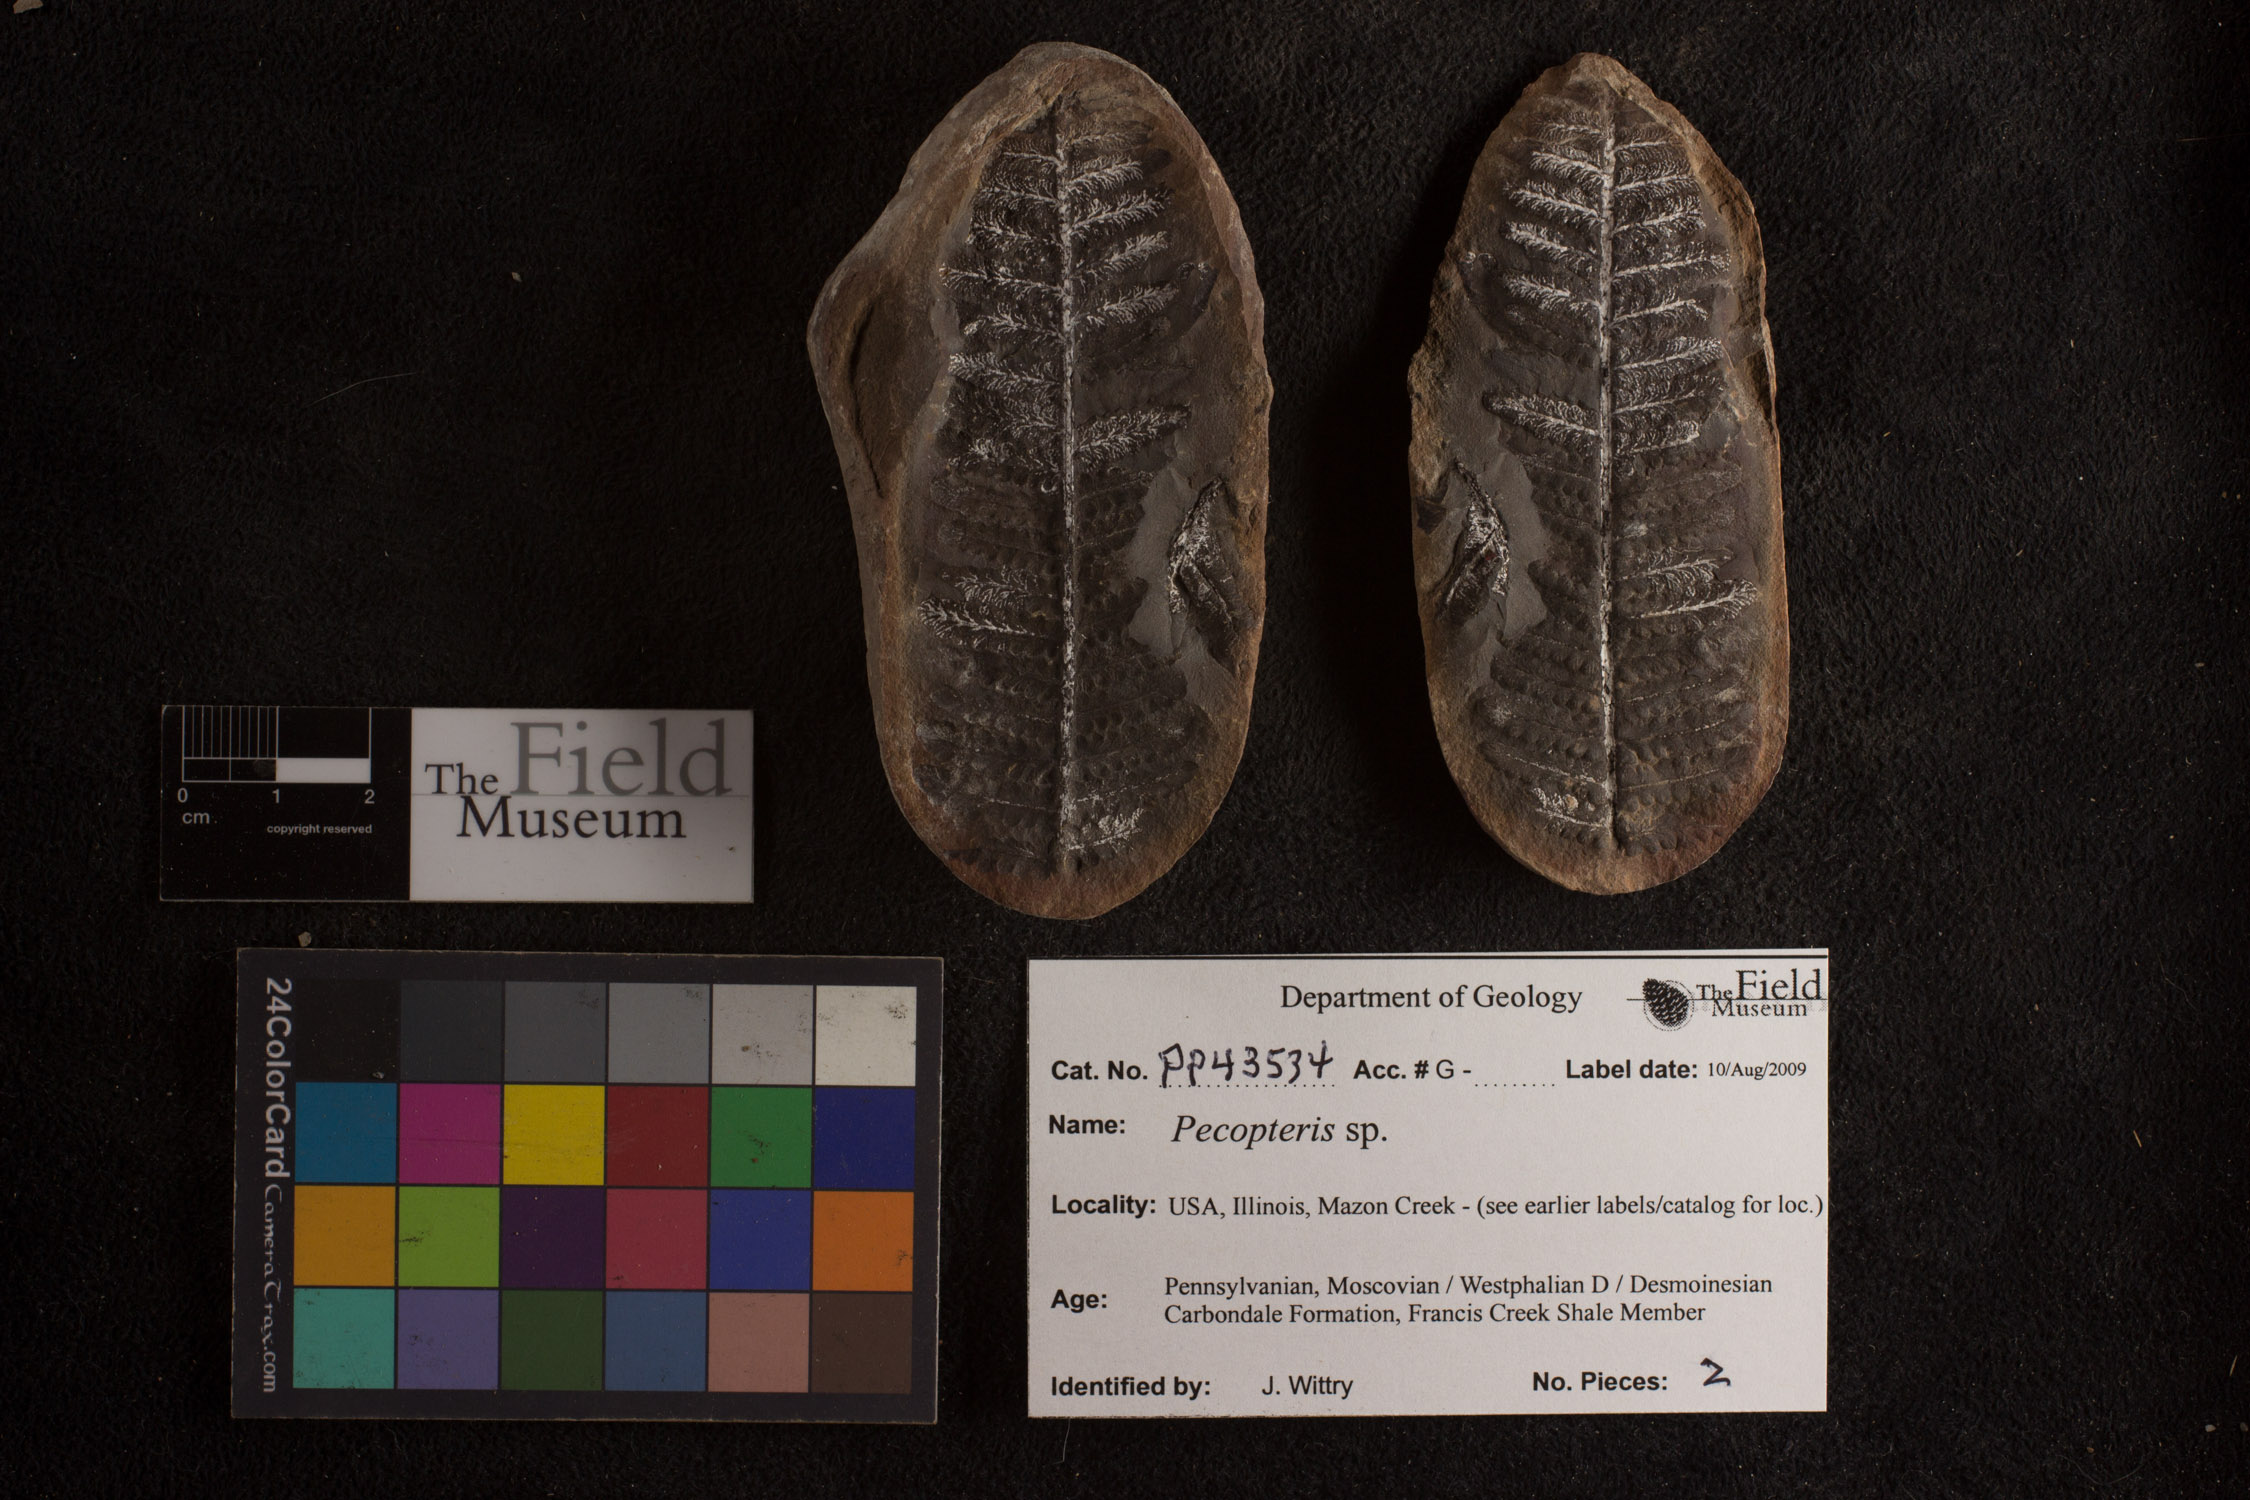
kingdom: Plantae
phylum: Tracheophyta
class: Polypodiopsida
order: Marattiales
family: Asterothecaceae
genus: Pecopteris
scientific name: Pecopteris
